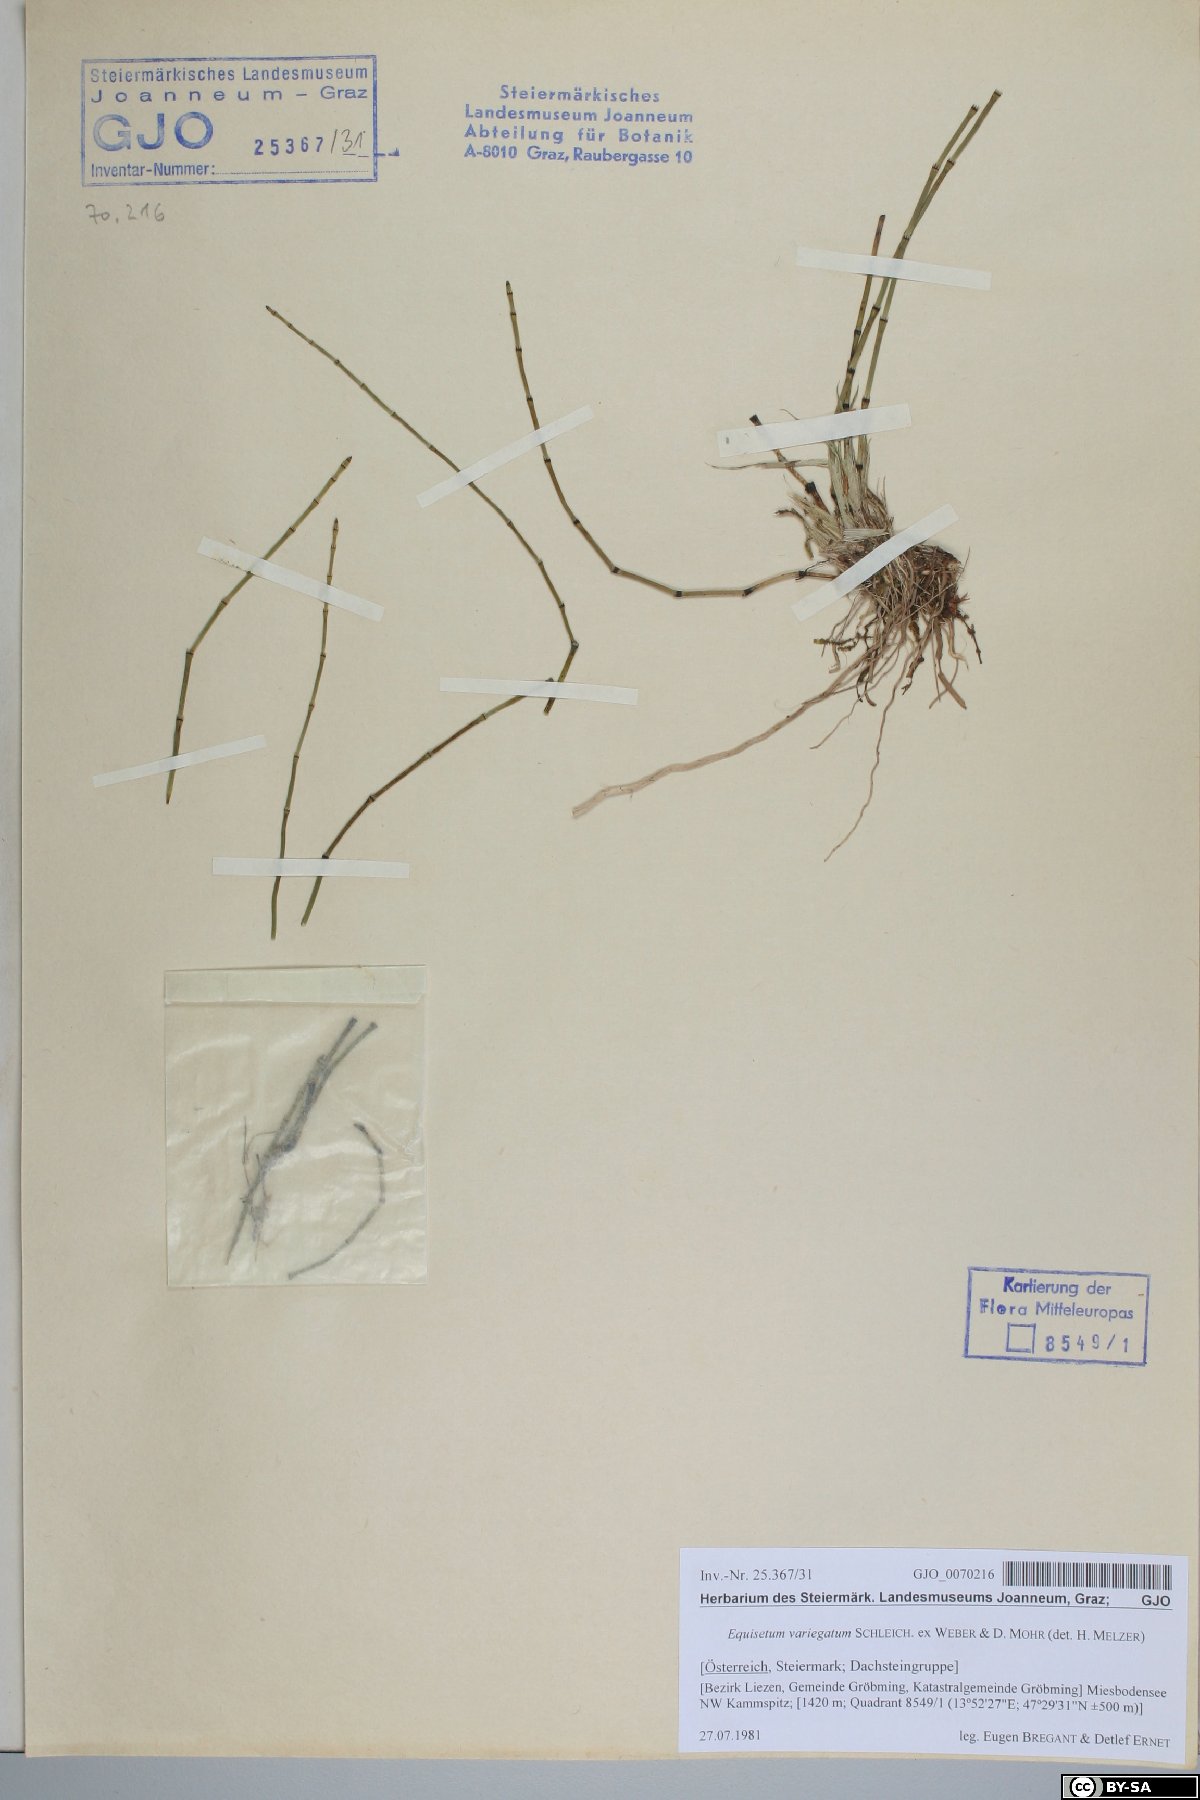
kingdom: Plantae
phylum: Tracheophyta
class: Polypodiopsida
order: Equisetales
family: Equisetaceae
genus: Equisetum
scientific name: Equisetum variegatum
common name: Variegated horsetail
